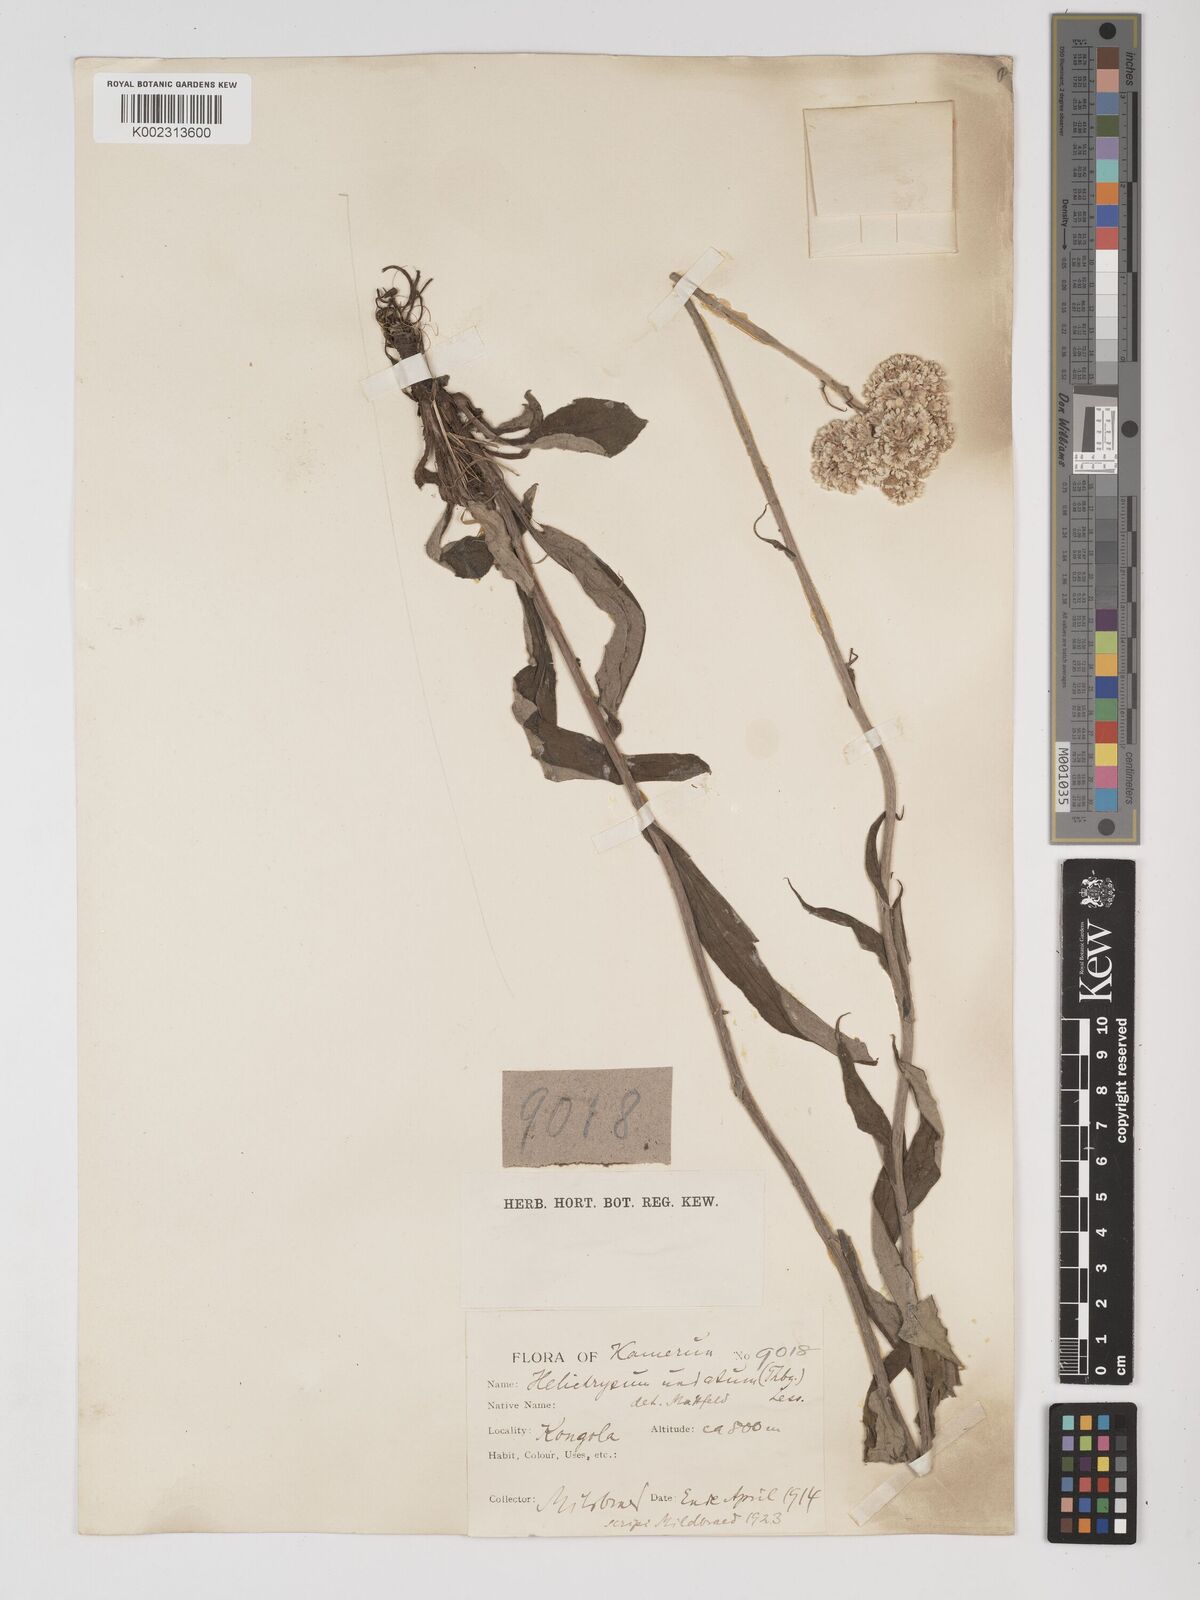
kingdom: Plantae
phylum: Tracheophyta
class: Magnoliopsida
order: Asterales
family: Asteraceae
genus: Helichrysum
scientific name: Helichrysum nudifolium
